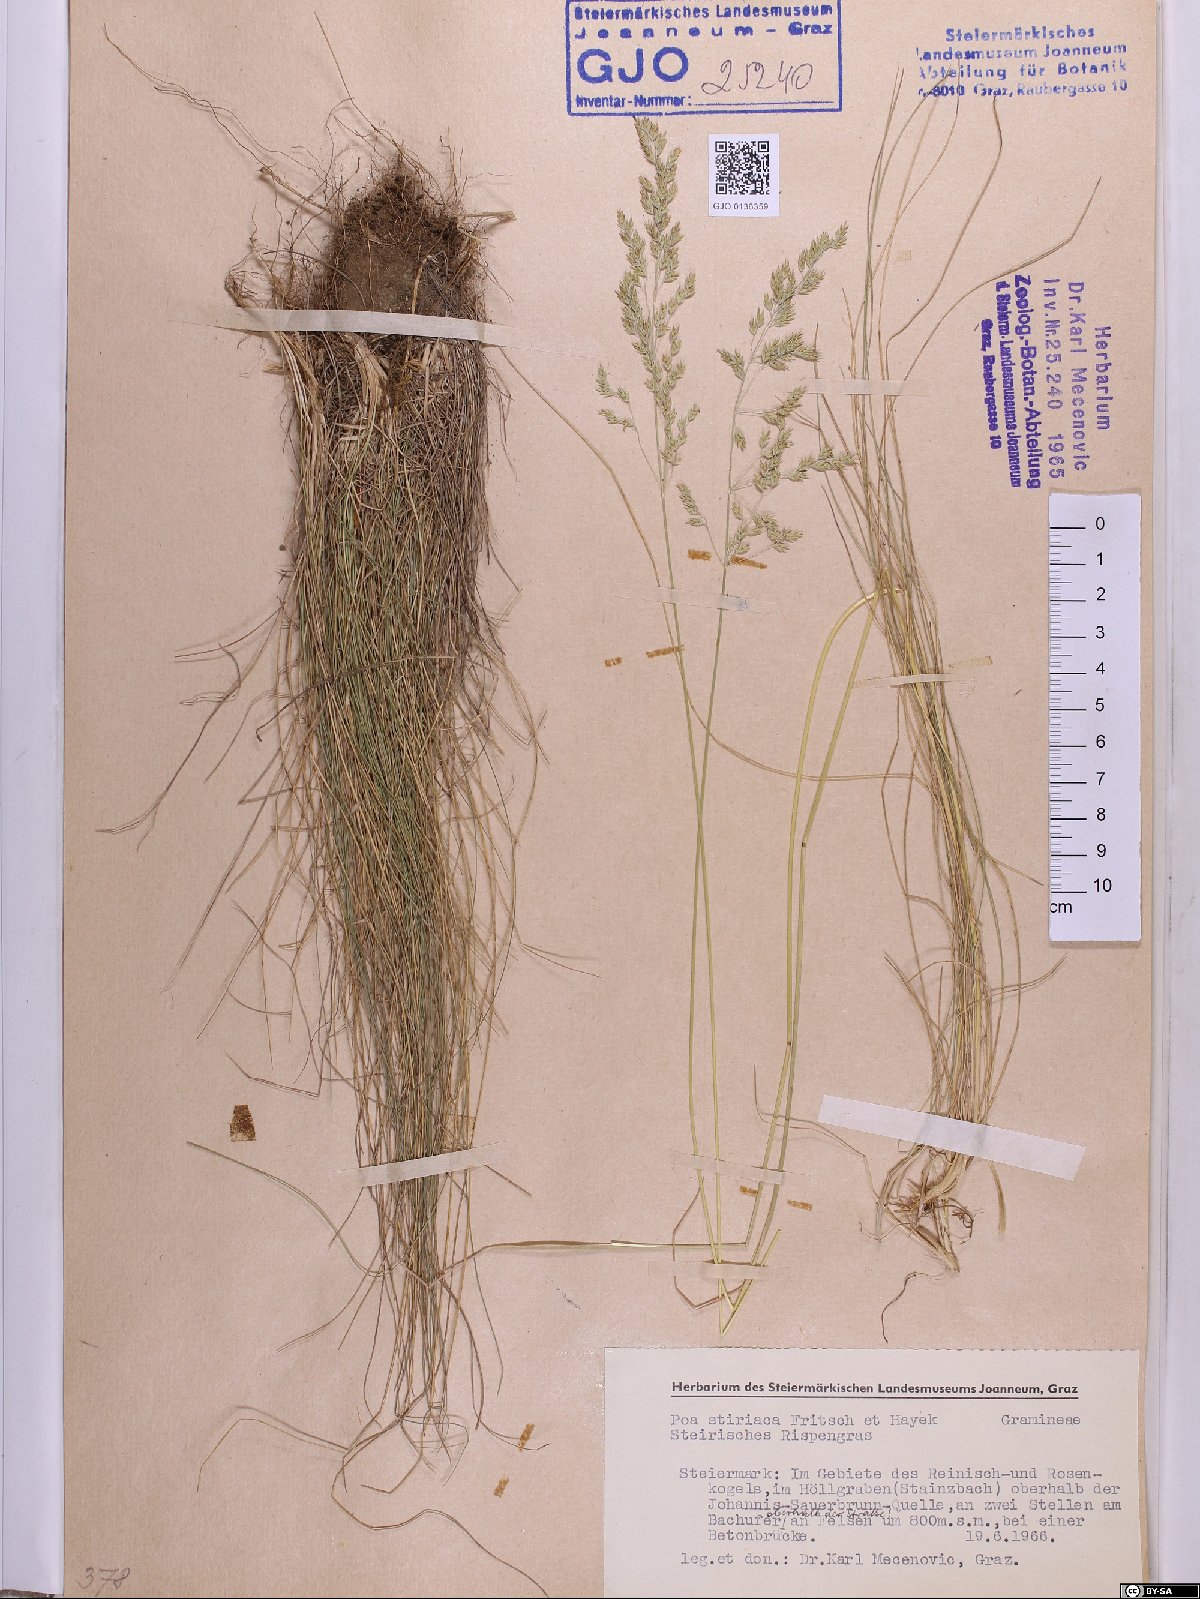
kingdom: Plantae
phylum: Tracheophyta
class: Liliopsida
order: Poales
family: Poaceae
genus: Poa
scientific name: Poa stiriaca
